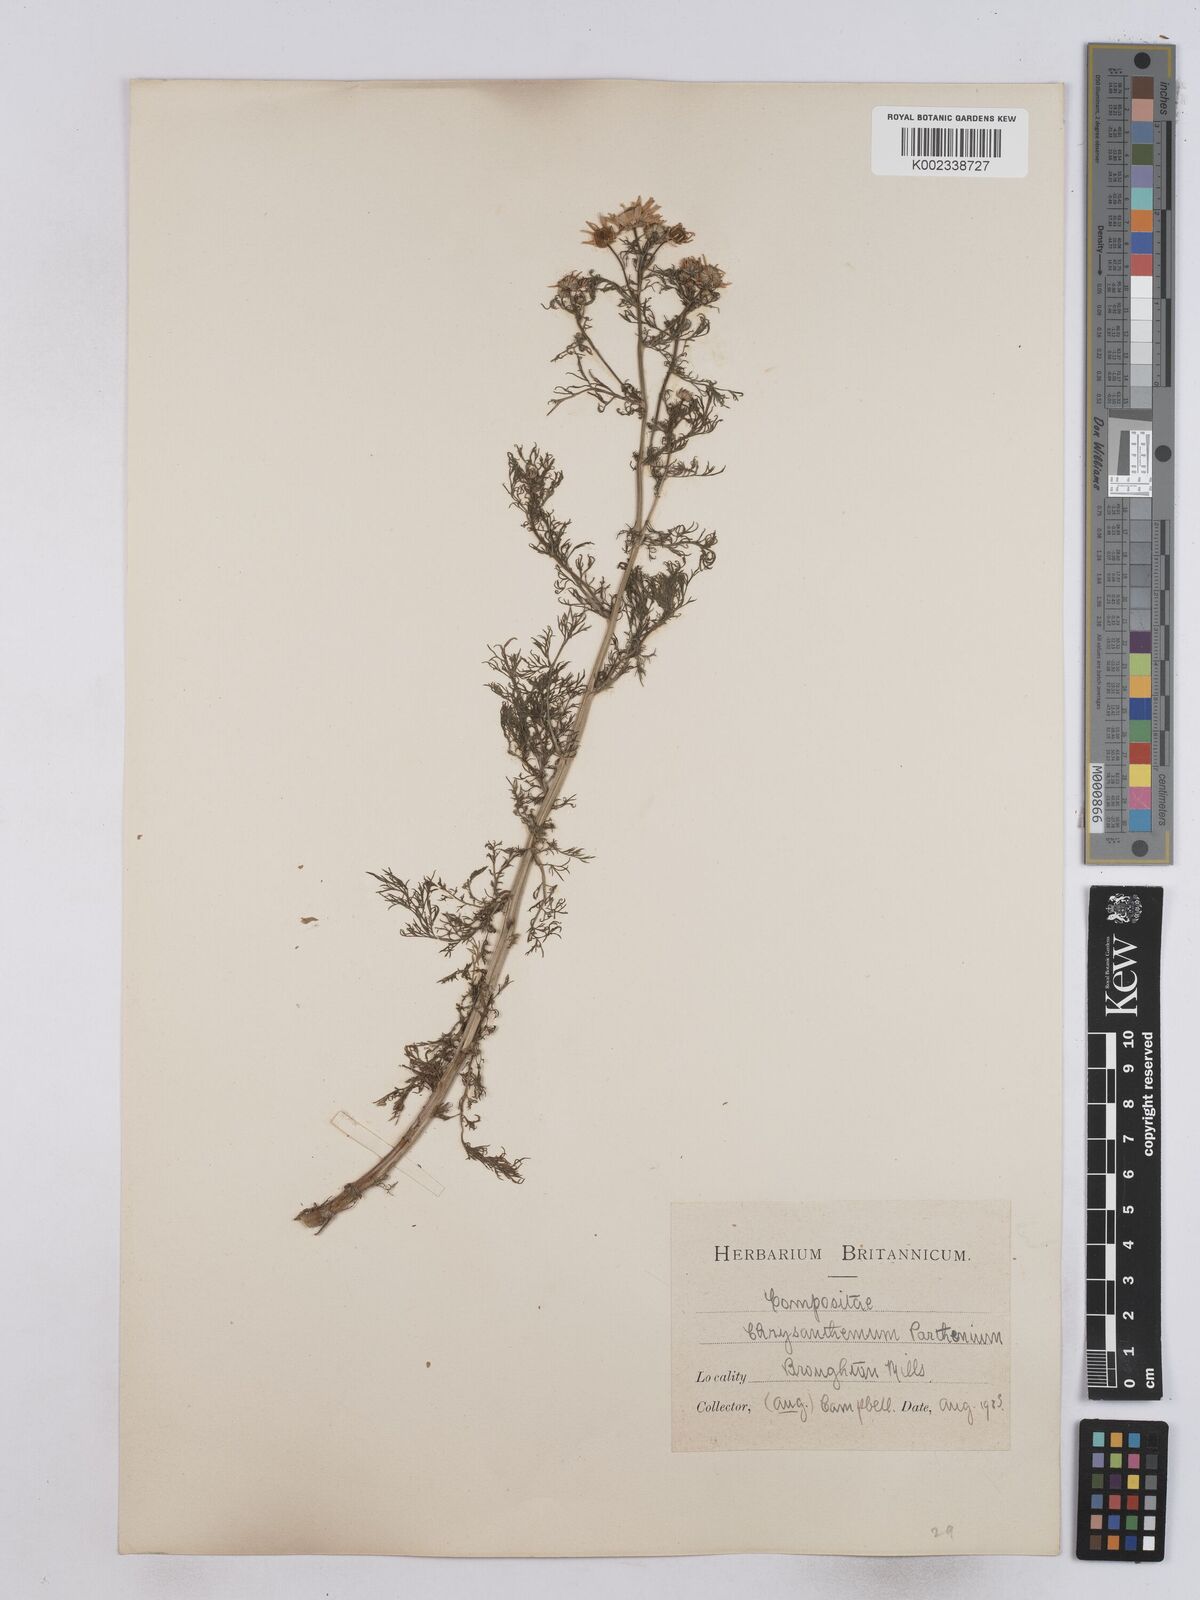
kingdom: Plantae
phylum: Tracheophyta
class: Magnoliopsida
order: Asterales
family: Asteraceae
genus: Tanacetum
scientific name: Tanacetum parthenium
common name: Feverfew
